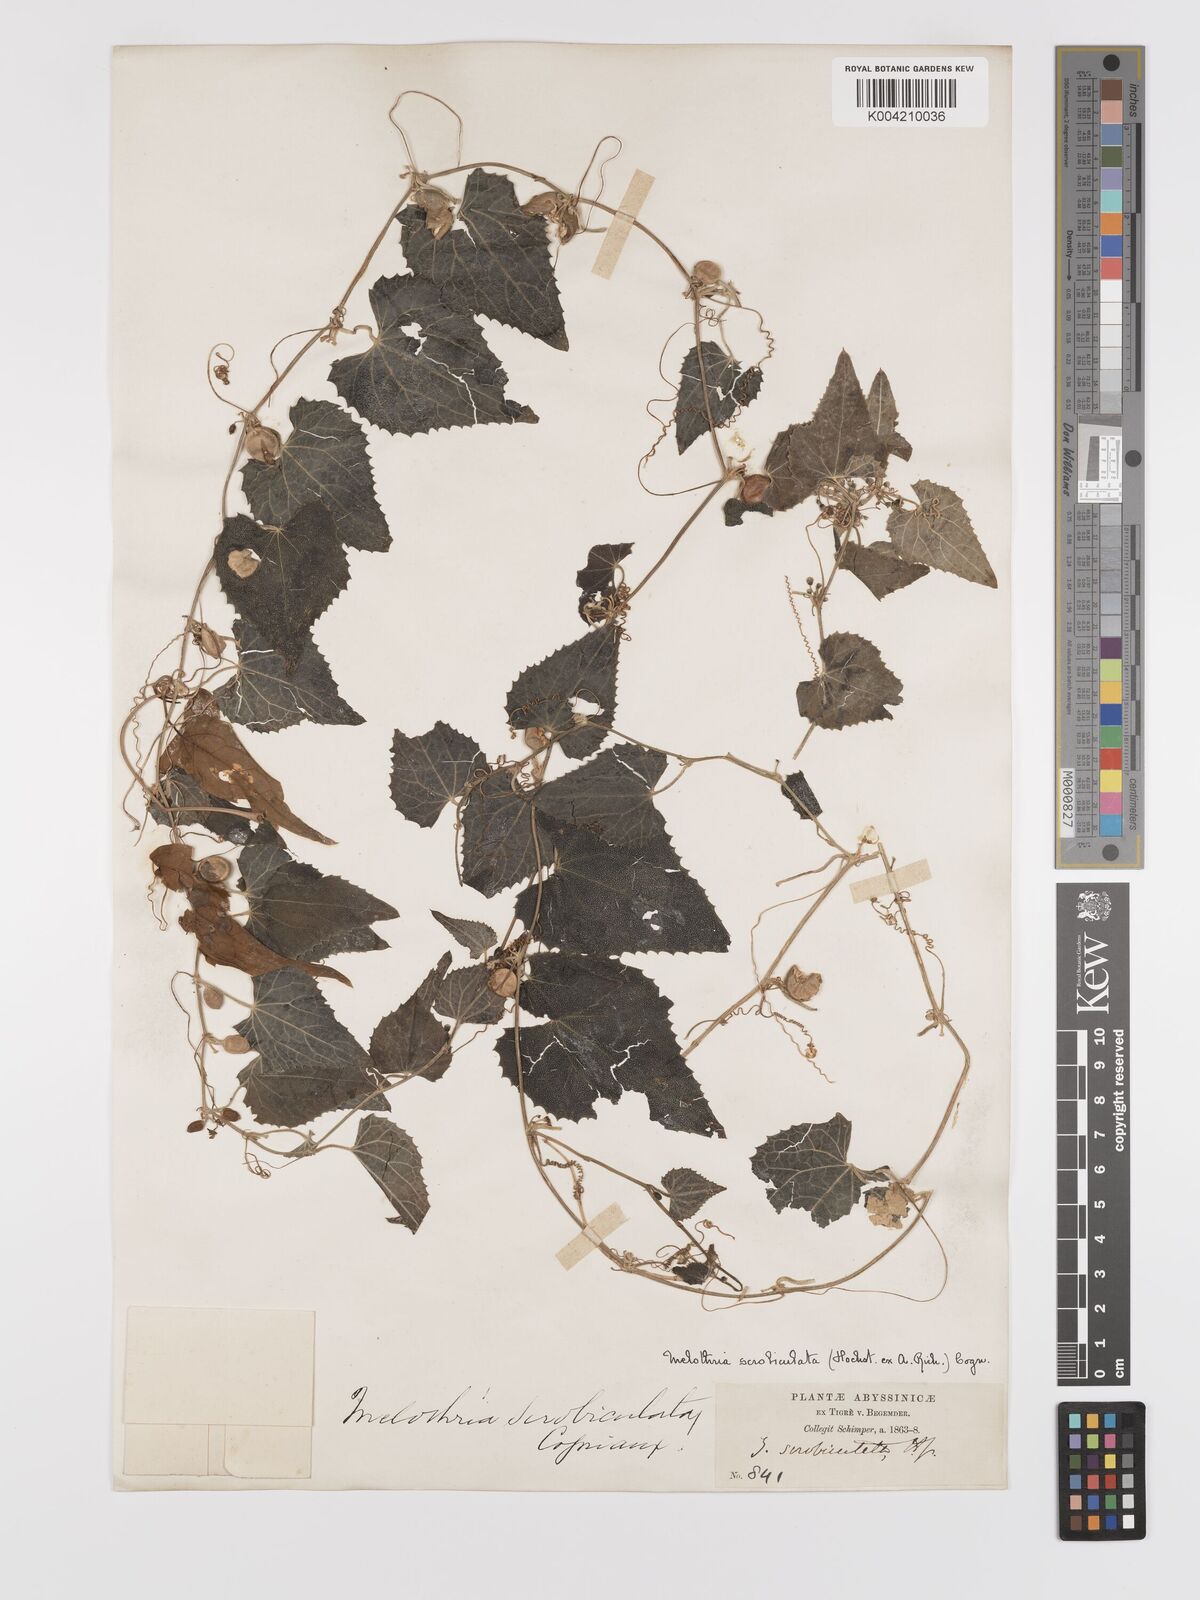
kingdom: Plantae
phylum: Tracheophyta
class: Magnoliopsida
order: Cucurbitales
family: Cucurbitaceae
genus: Zehneria
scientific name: Zehneria scabra
